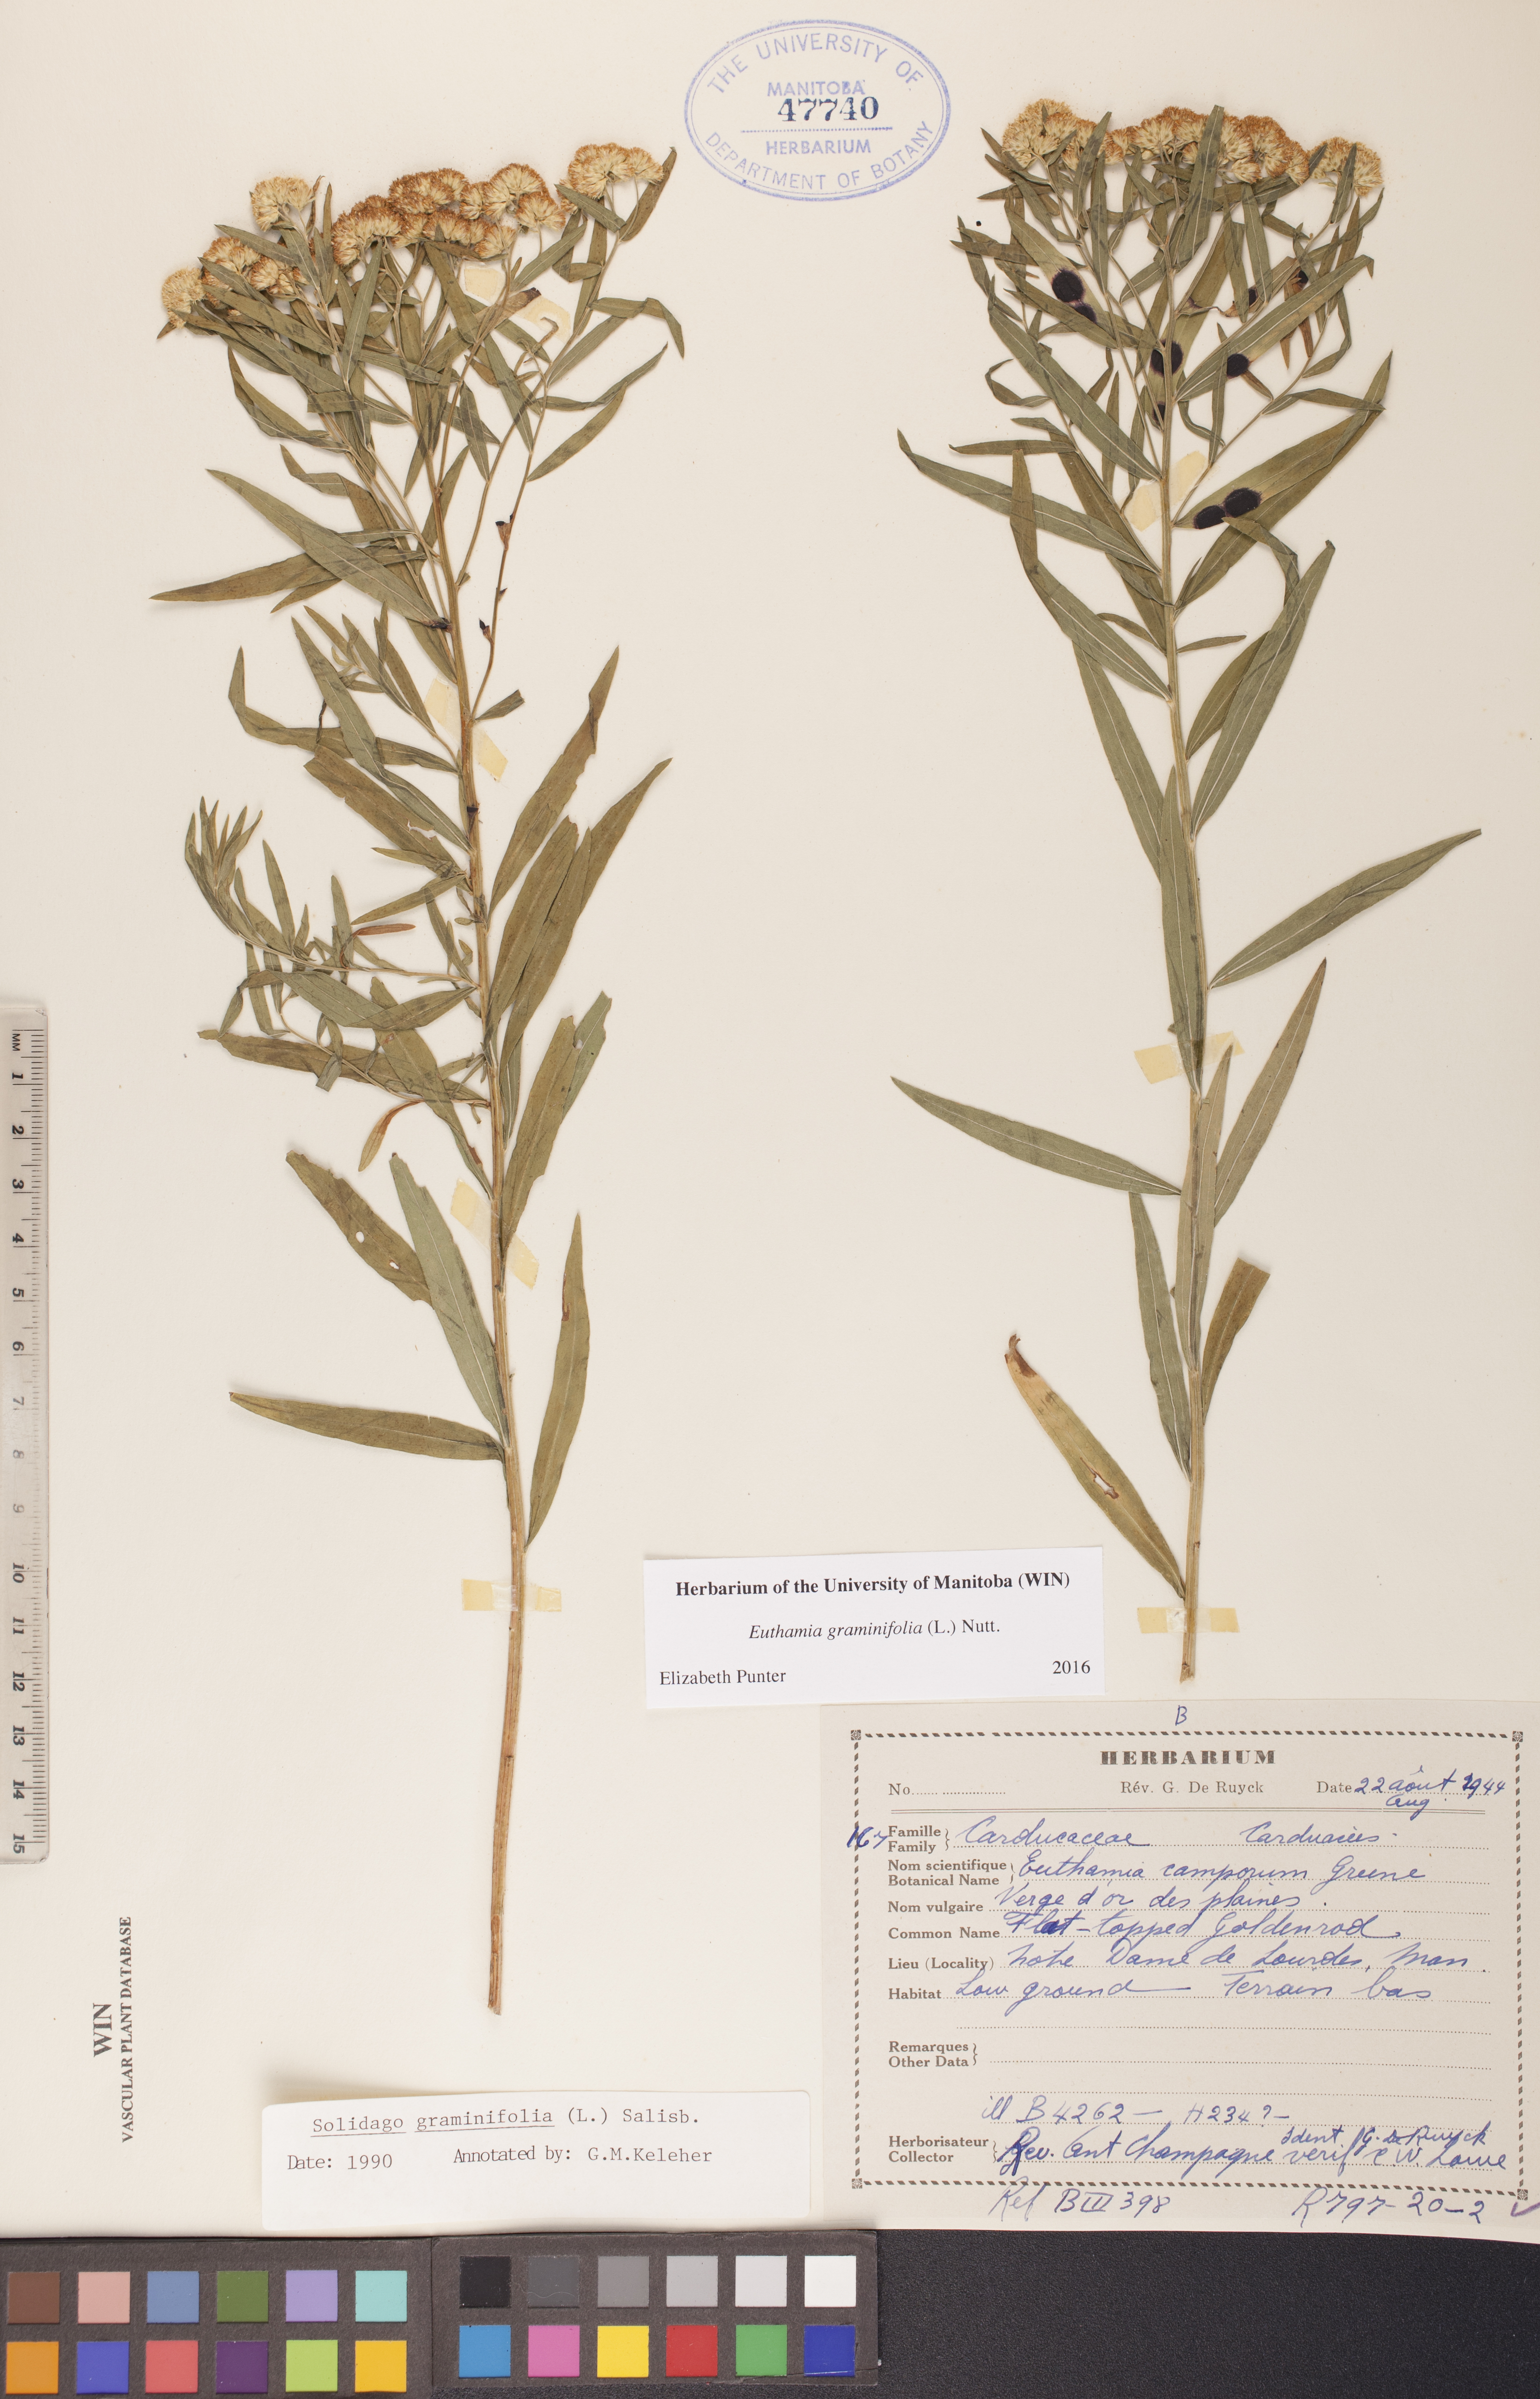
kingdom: Plantae
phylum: Tracheophyta
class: Magnoliopsida
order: Asterales
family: Asteraceae
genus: Euthamia
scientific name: Euthamia graminifolia
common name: Common goldentop
